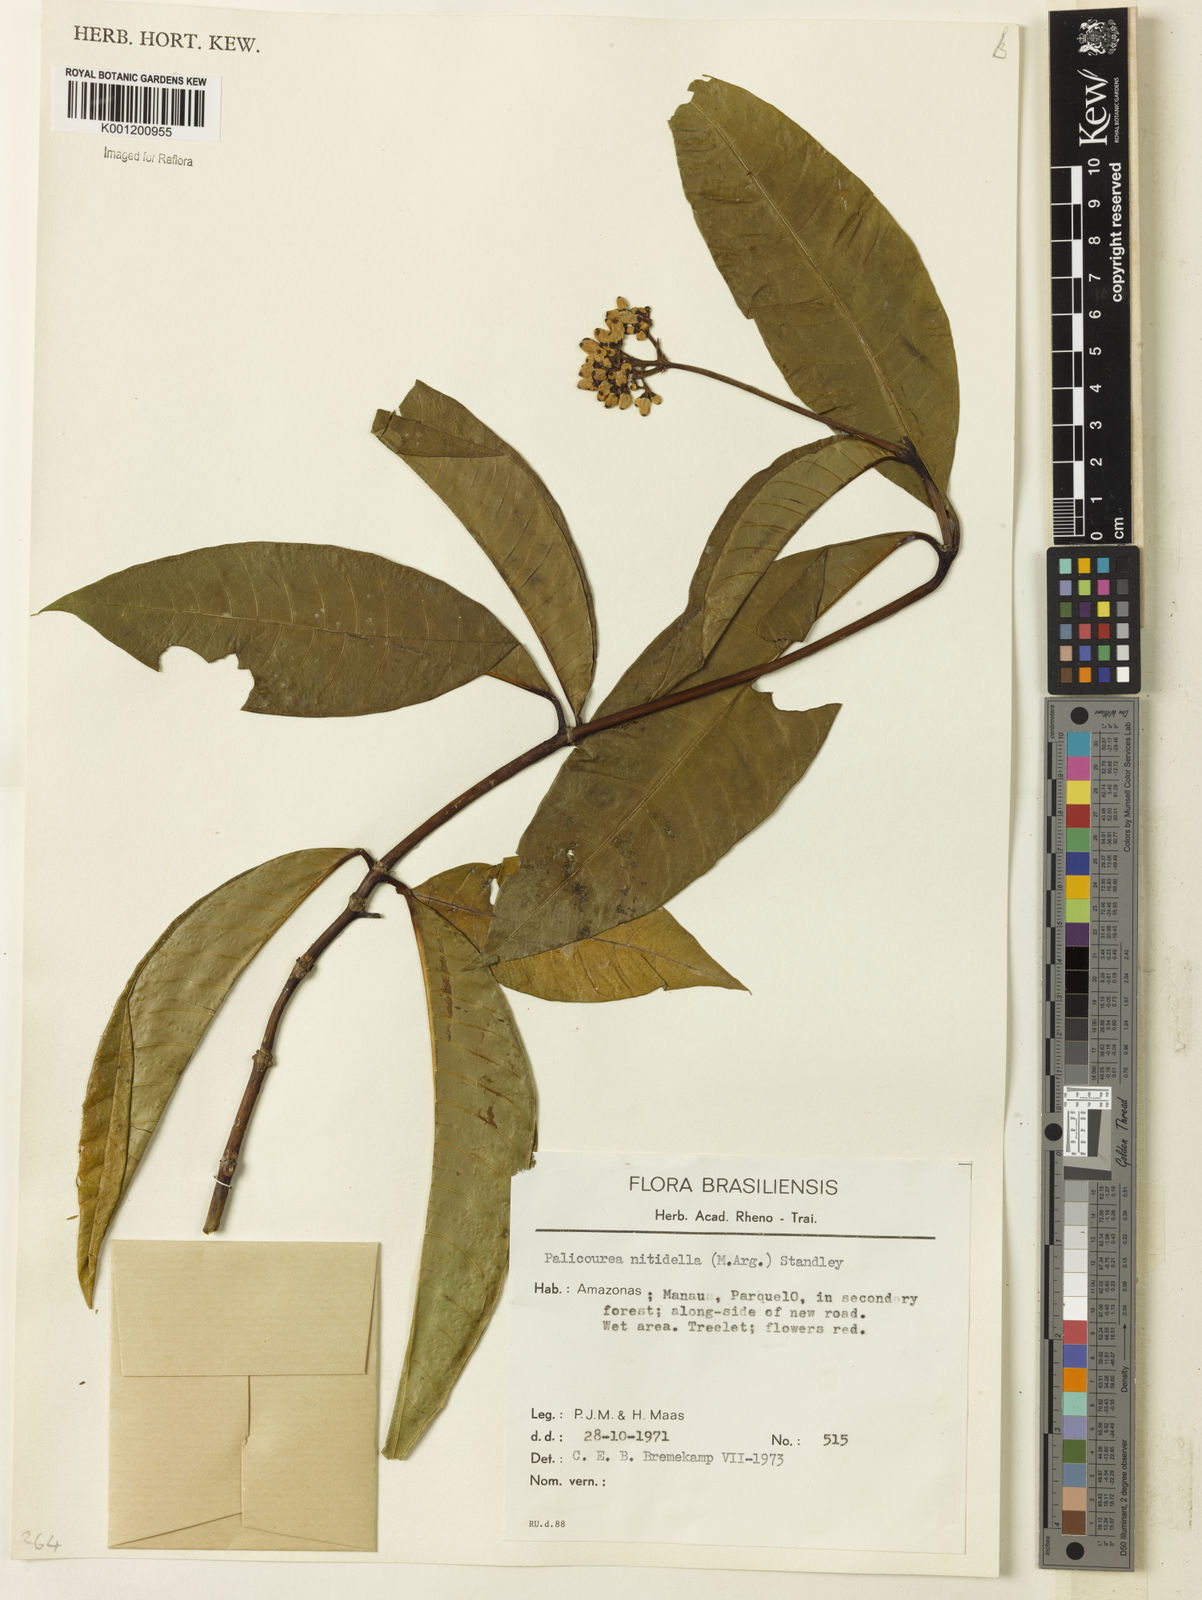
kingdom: Plantae
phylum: Tracheophyta
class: Magnoliopsida
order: Gentianales
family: Rubiaceae
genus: Palicourea
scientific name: Palicourea
